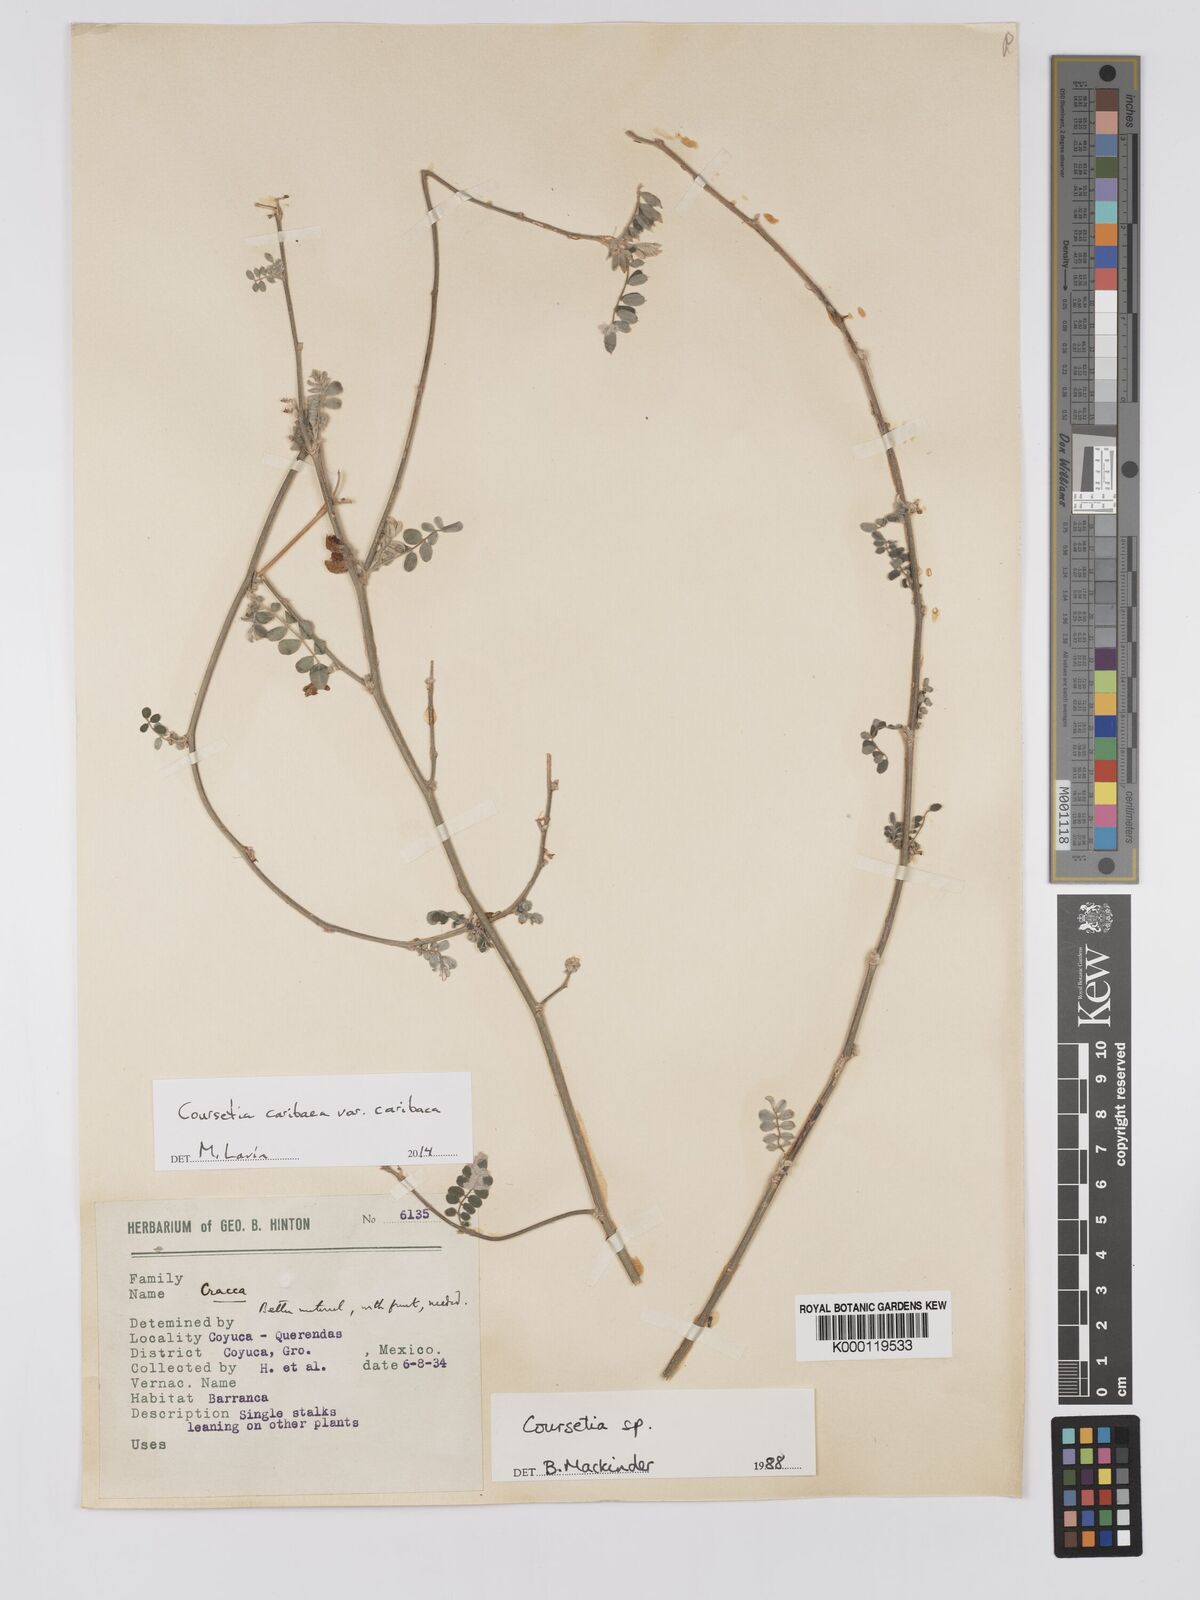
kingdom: Plantae
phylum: Tracheophyta
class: Magnoliopsida
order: Fabales
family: Fabaceae
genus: Coursetia
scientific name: Coursetia
